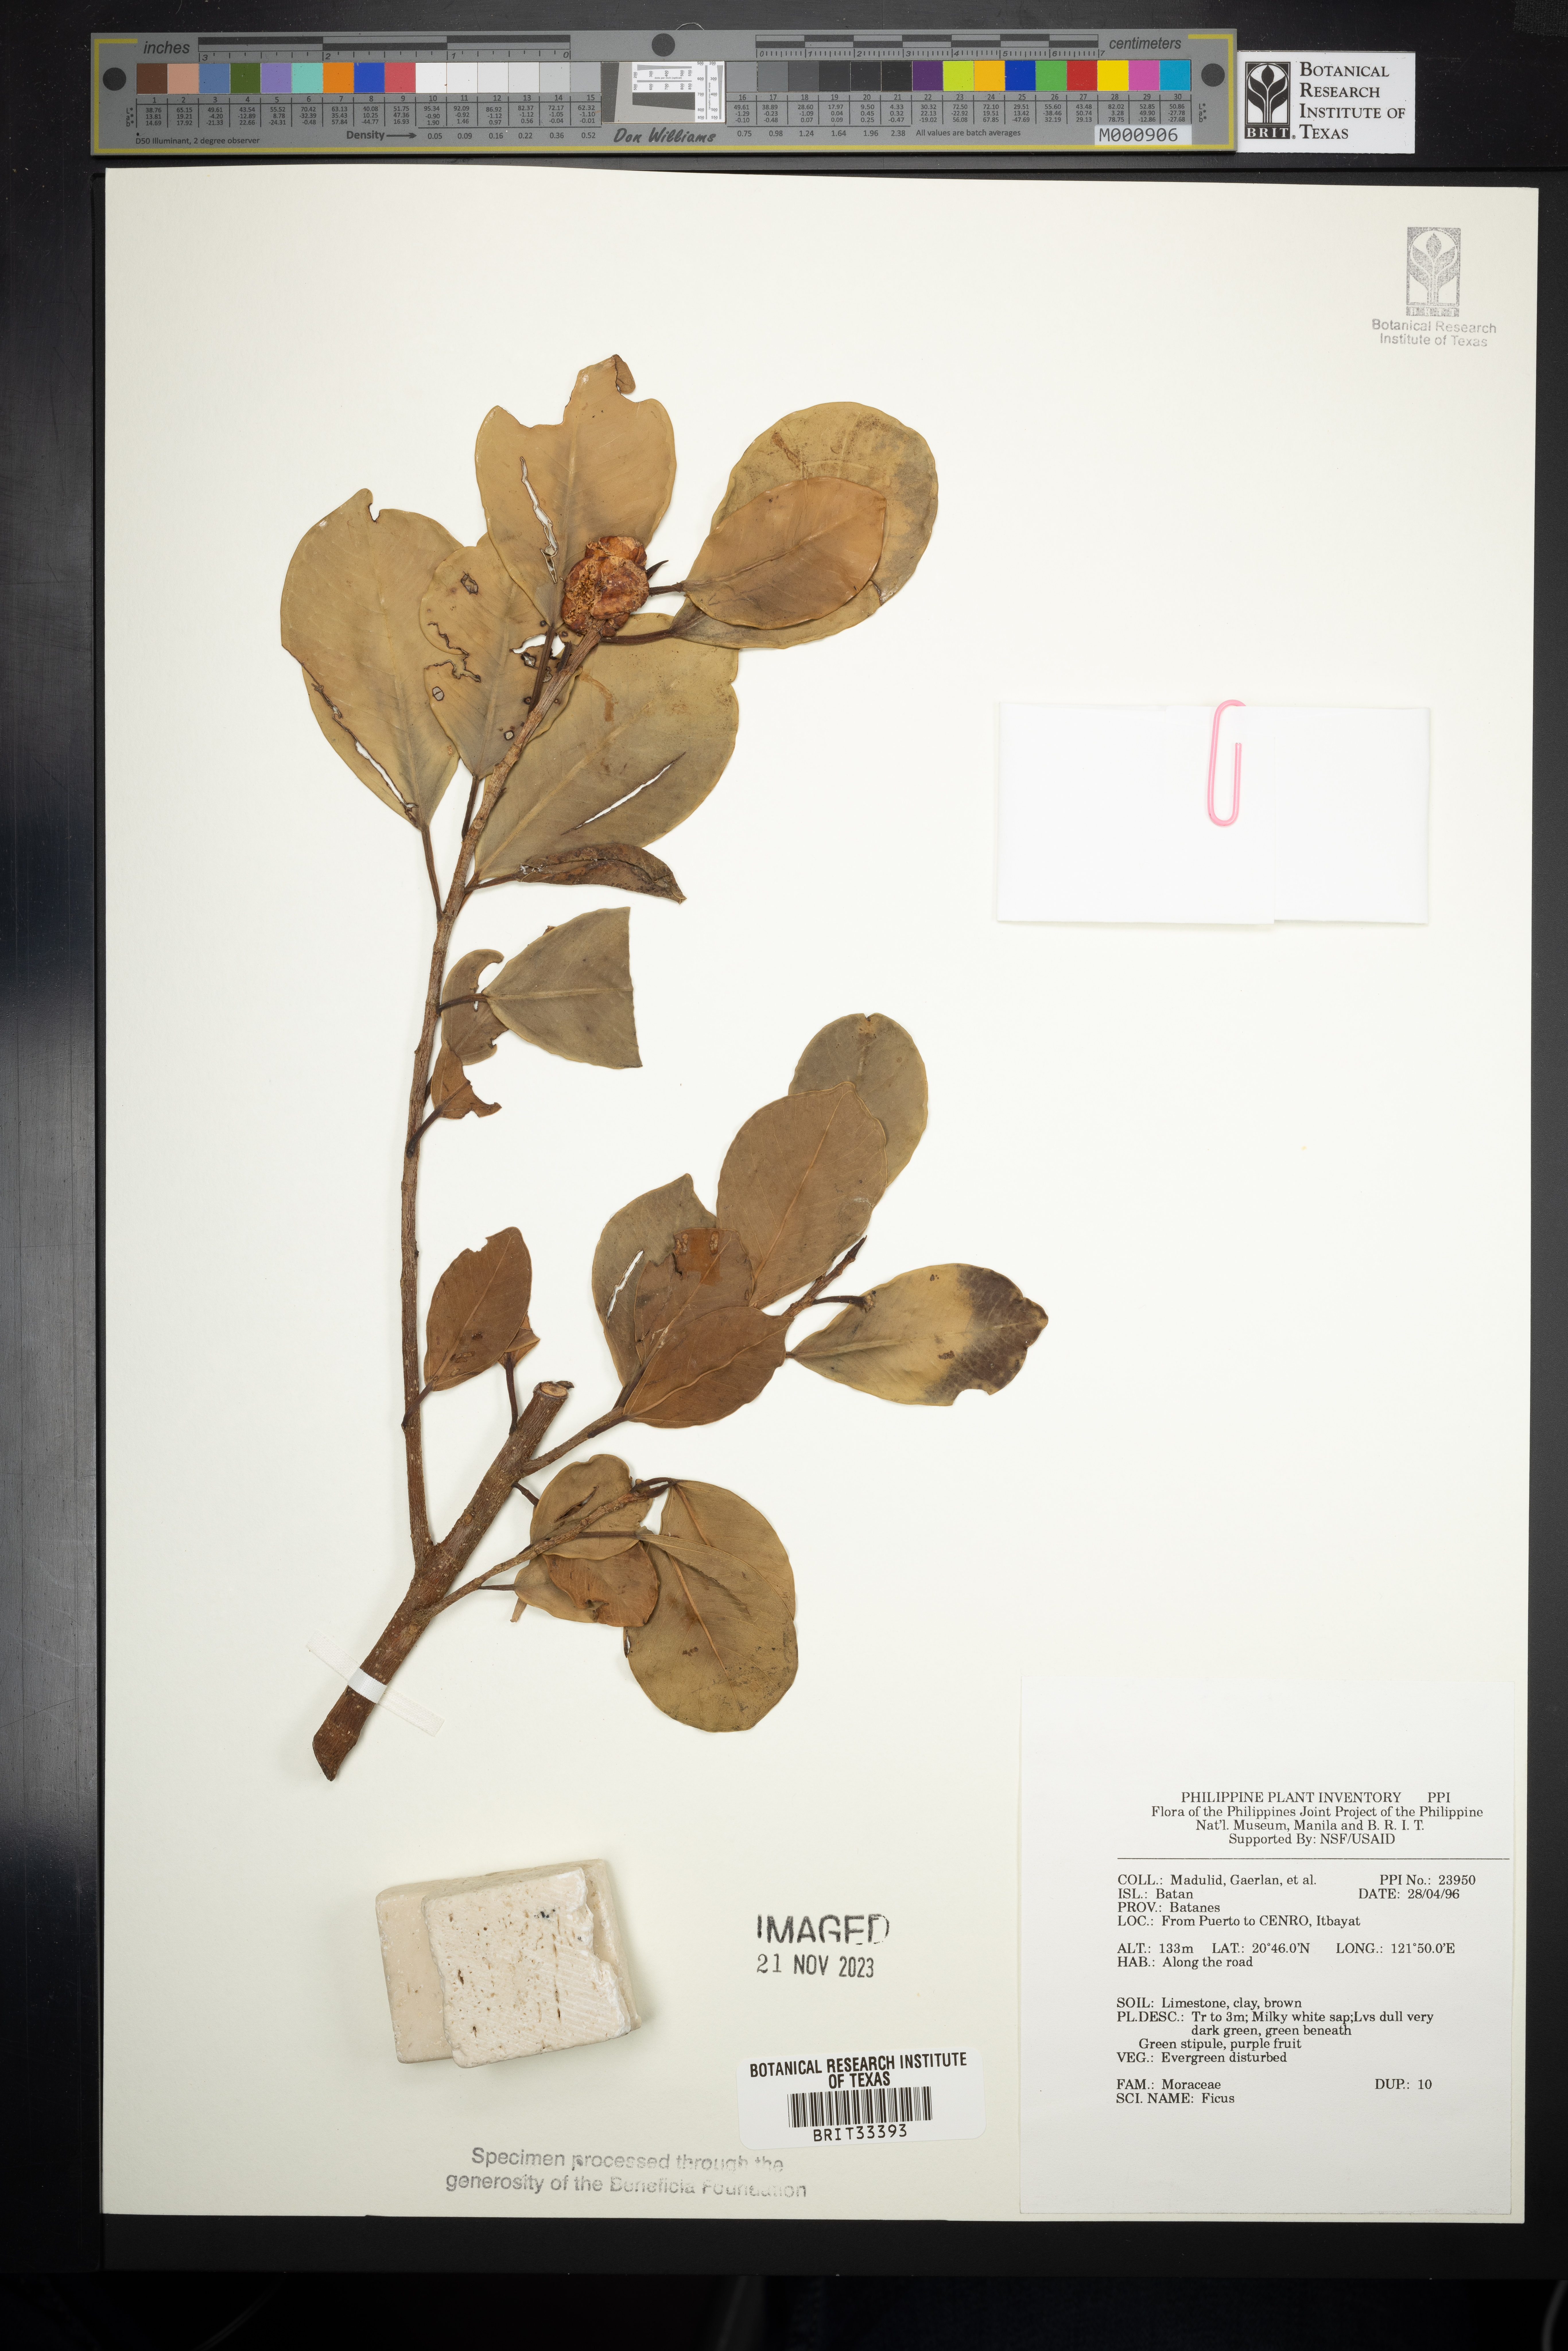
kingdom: Plantae
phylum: Tracheophyta
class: Magnoliopsida
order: Rosales
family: Moraceae
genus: Ficus
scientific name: Ficus
